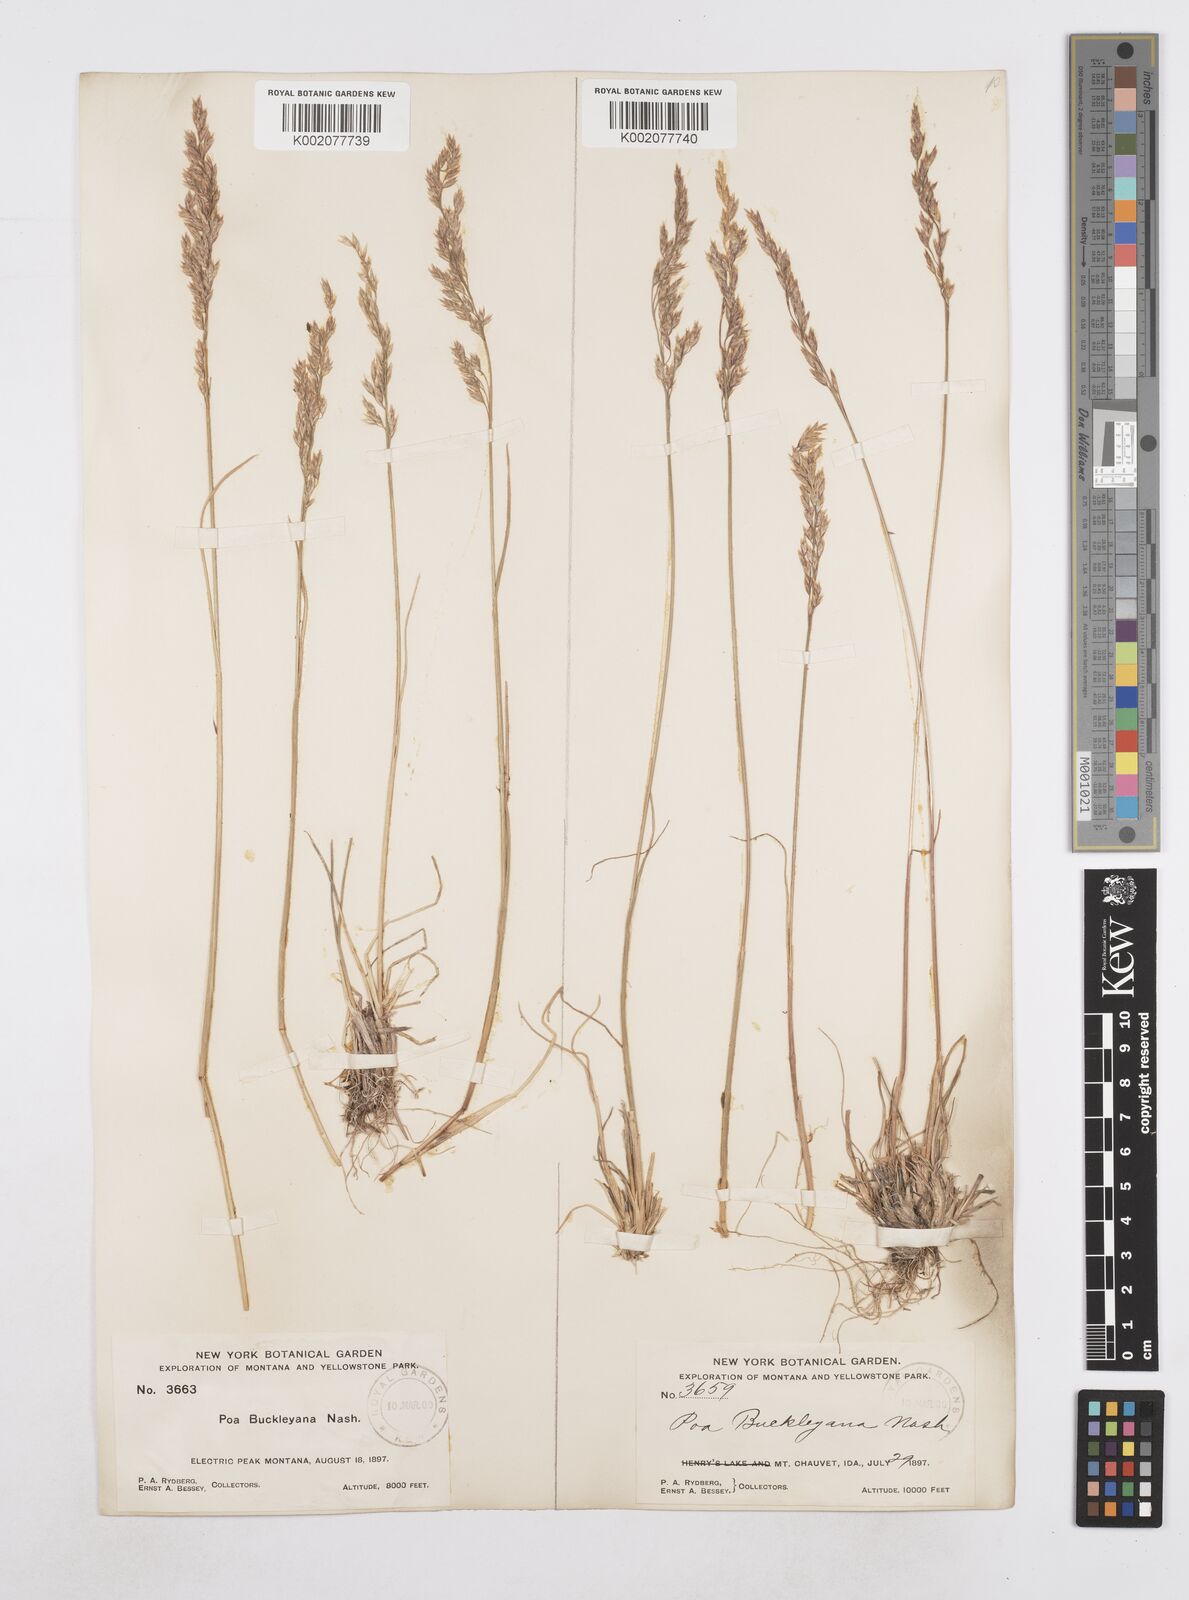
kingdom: Plantae
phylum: Tracheophyta
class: Liliopsida
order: Poales
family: Poaceae
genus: Poa
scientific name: Poa secunda
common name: Sandberg bluegrass
